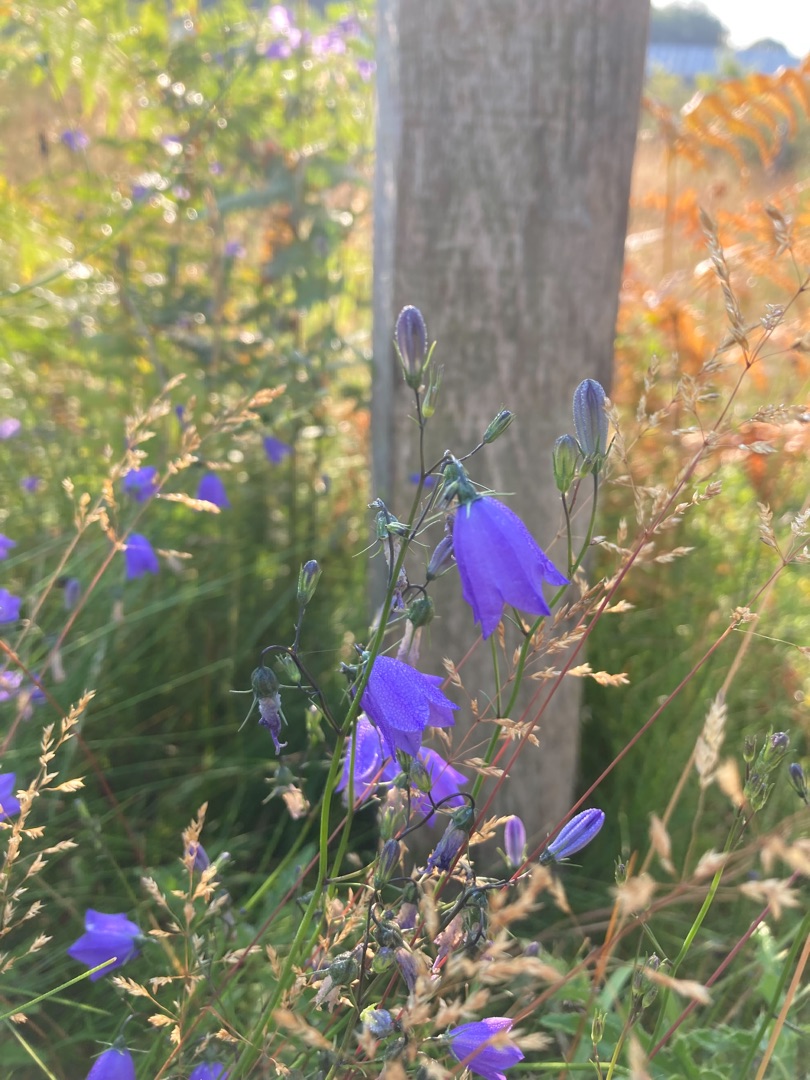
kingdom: Plantae
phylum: Tracheophyta
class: Magnoliopsida
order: Asterales
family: Campanulaceae
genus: Campanula
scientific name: Campanula rotundifolia
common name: Liden klokke
